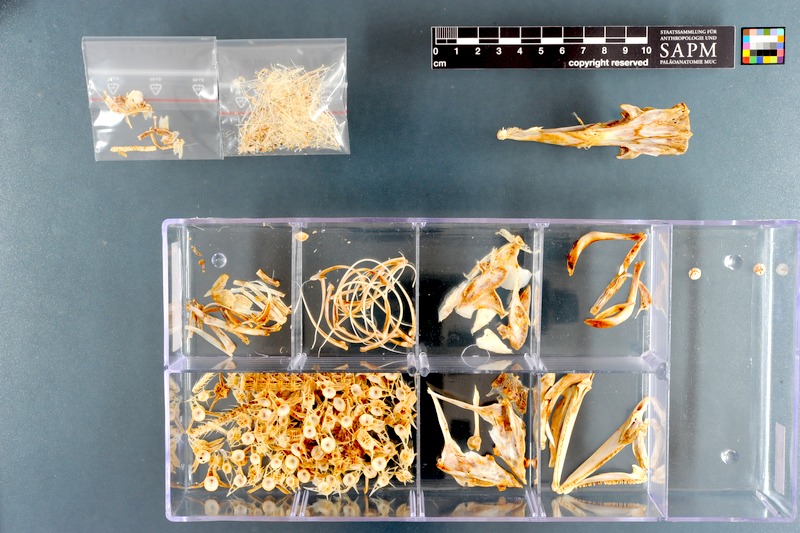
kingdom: Animalia
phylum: Chordata
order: Anguilliformes
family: Congridae
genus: Conger
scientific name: Conger conger
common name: Conger eel
